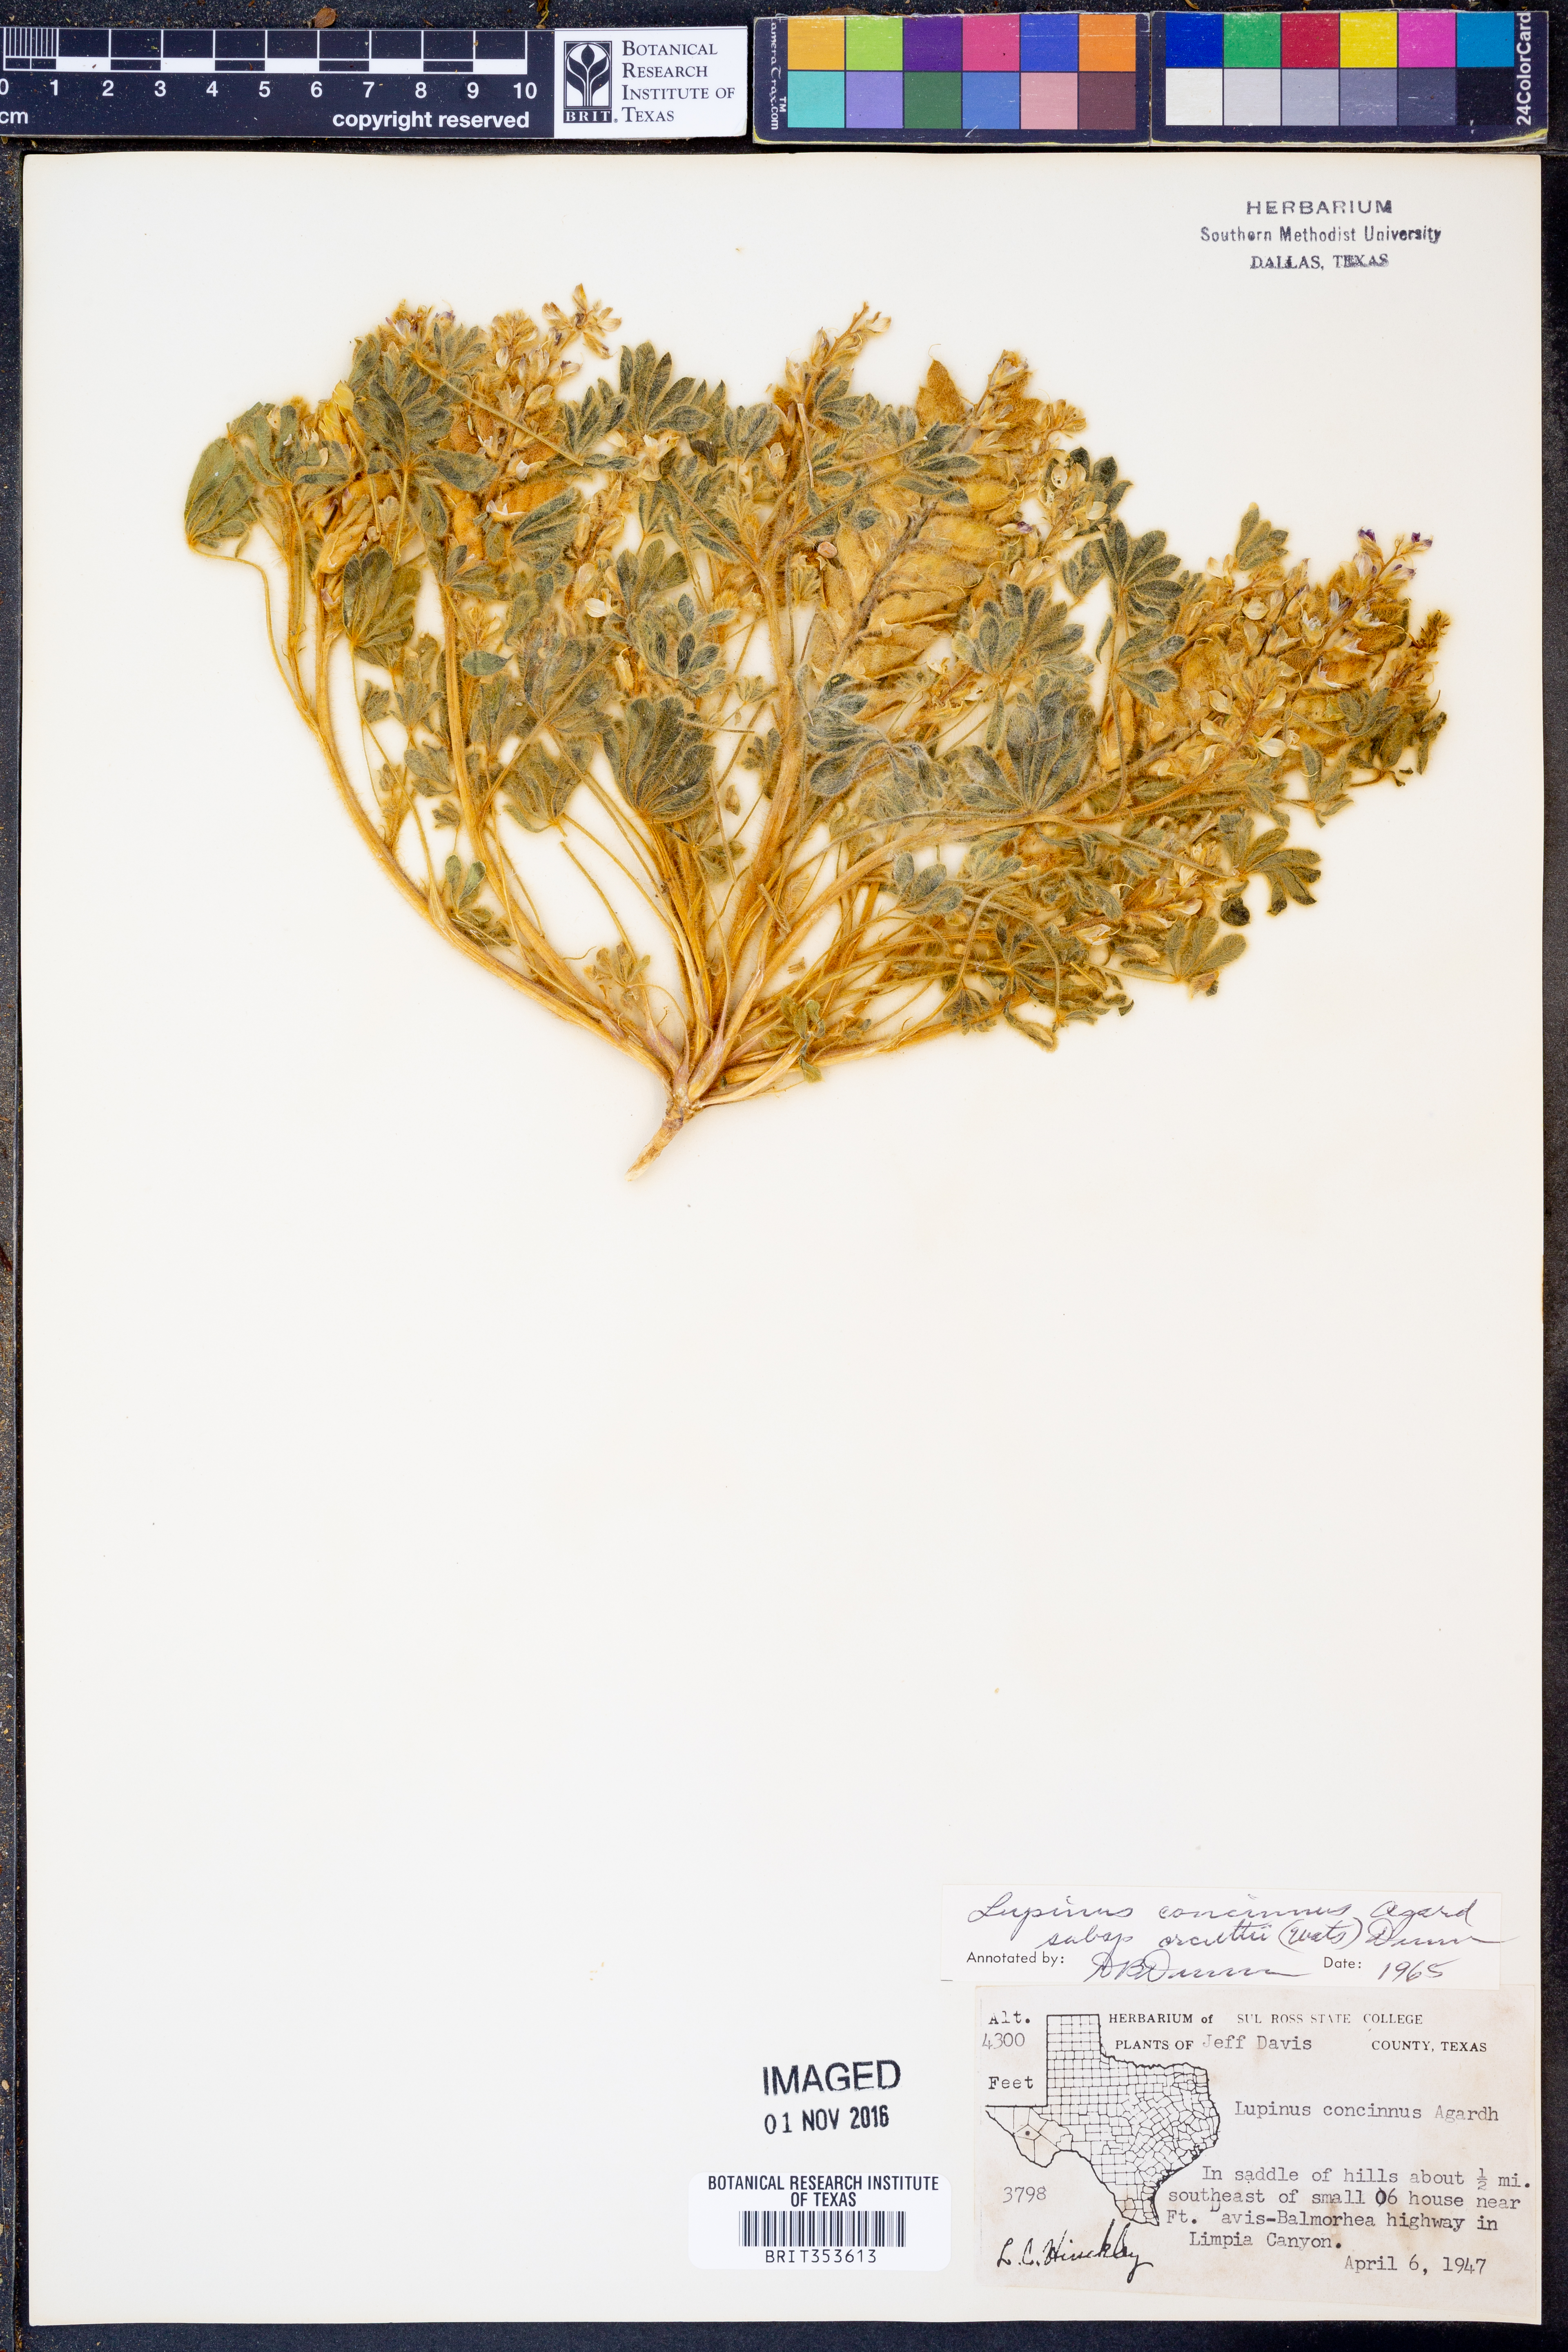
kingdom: Plantae
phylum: Tracheophyta
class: Magnoliopsida
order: Fabales
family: Fabaceae
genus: Lupinus
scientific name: Lupinus concinnus
